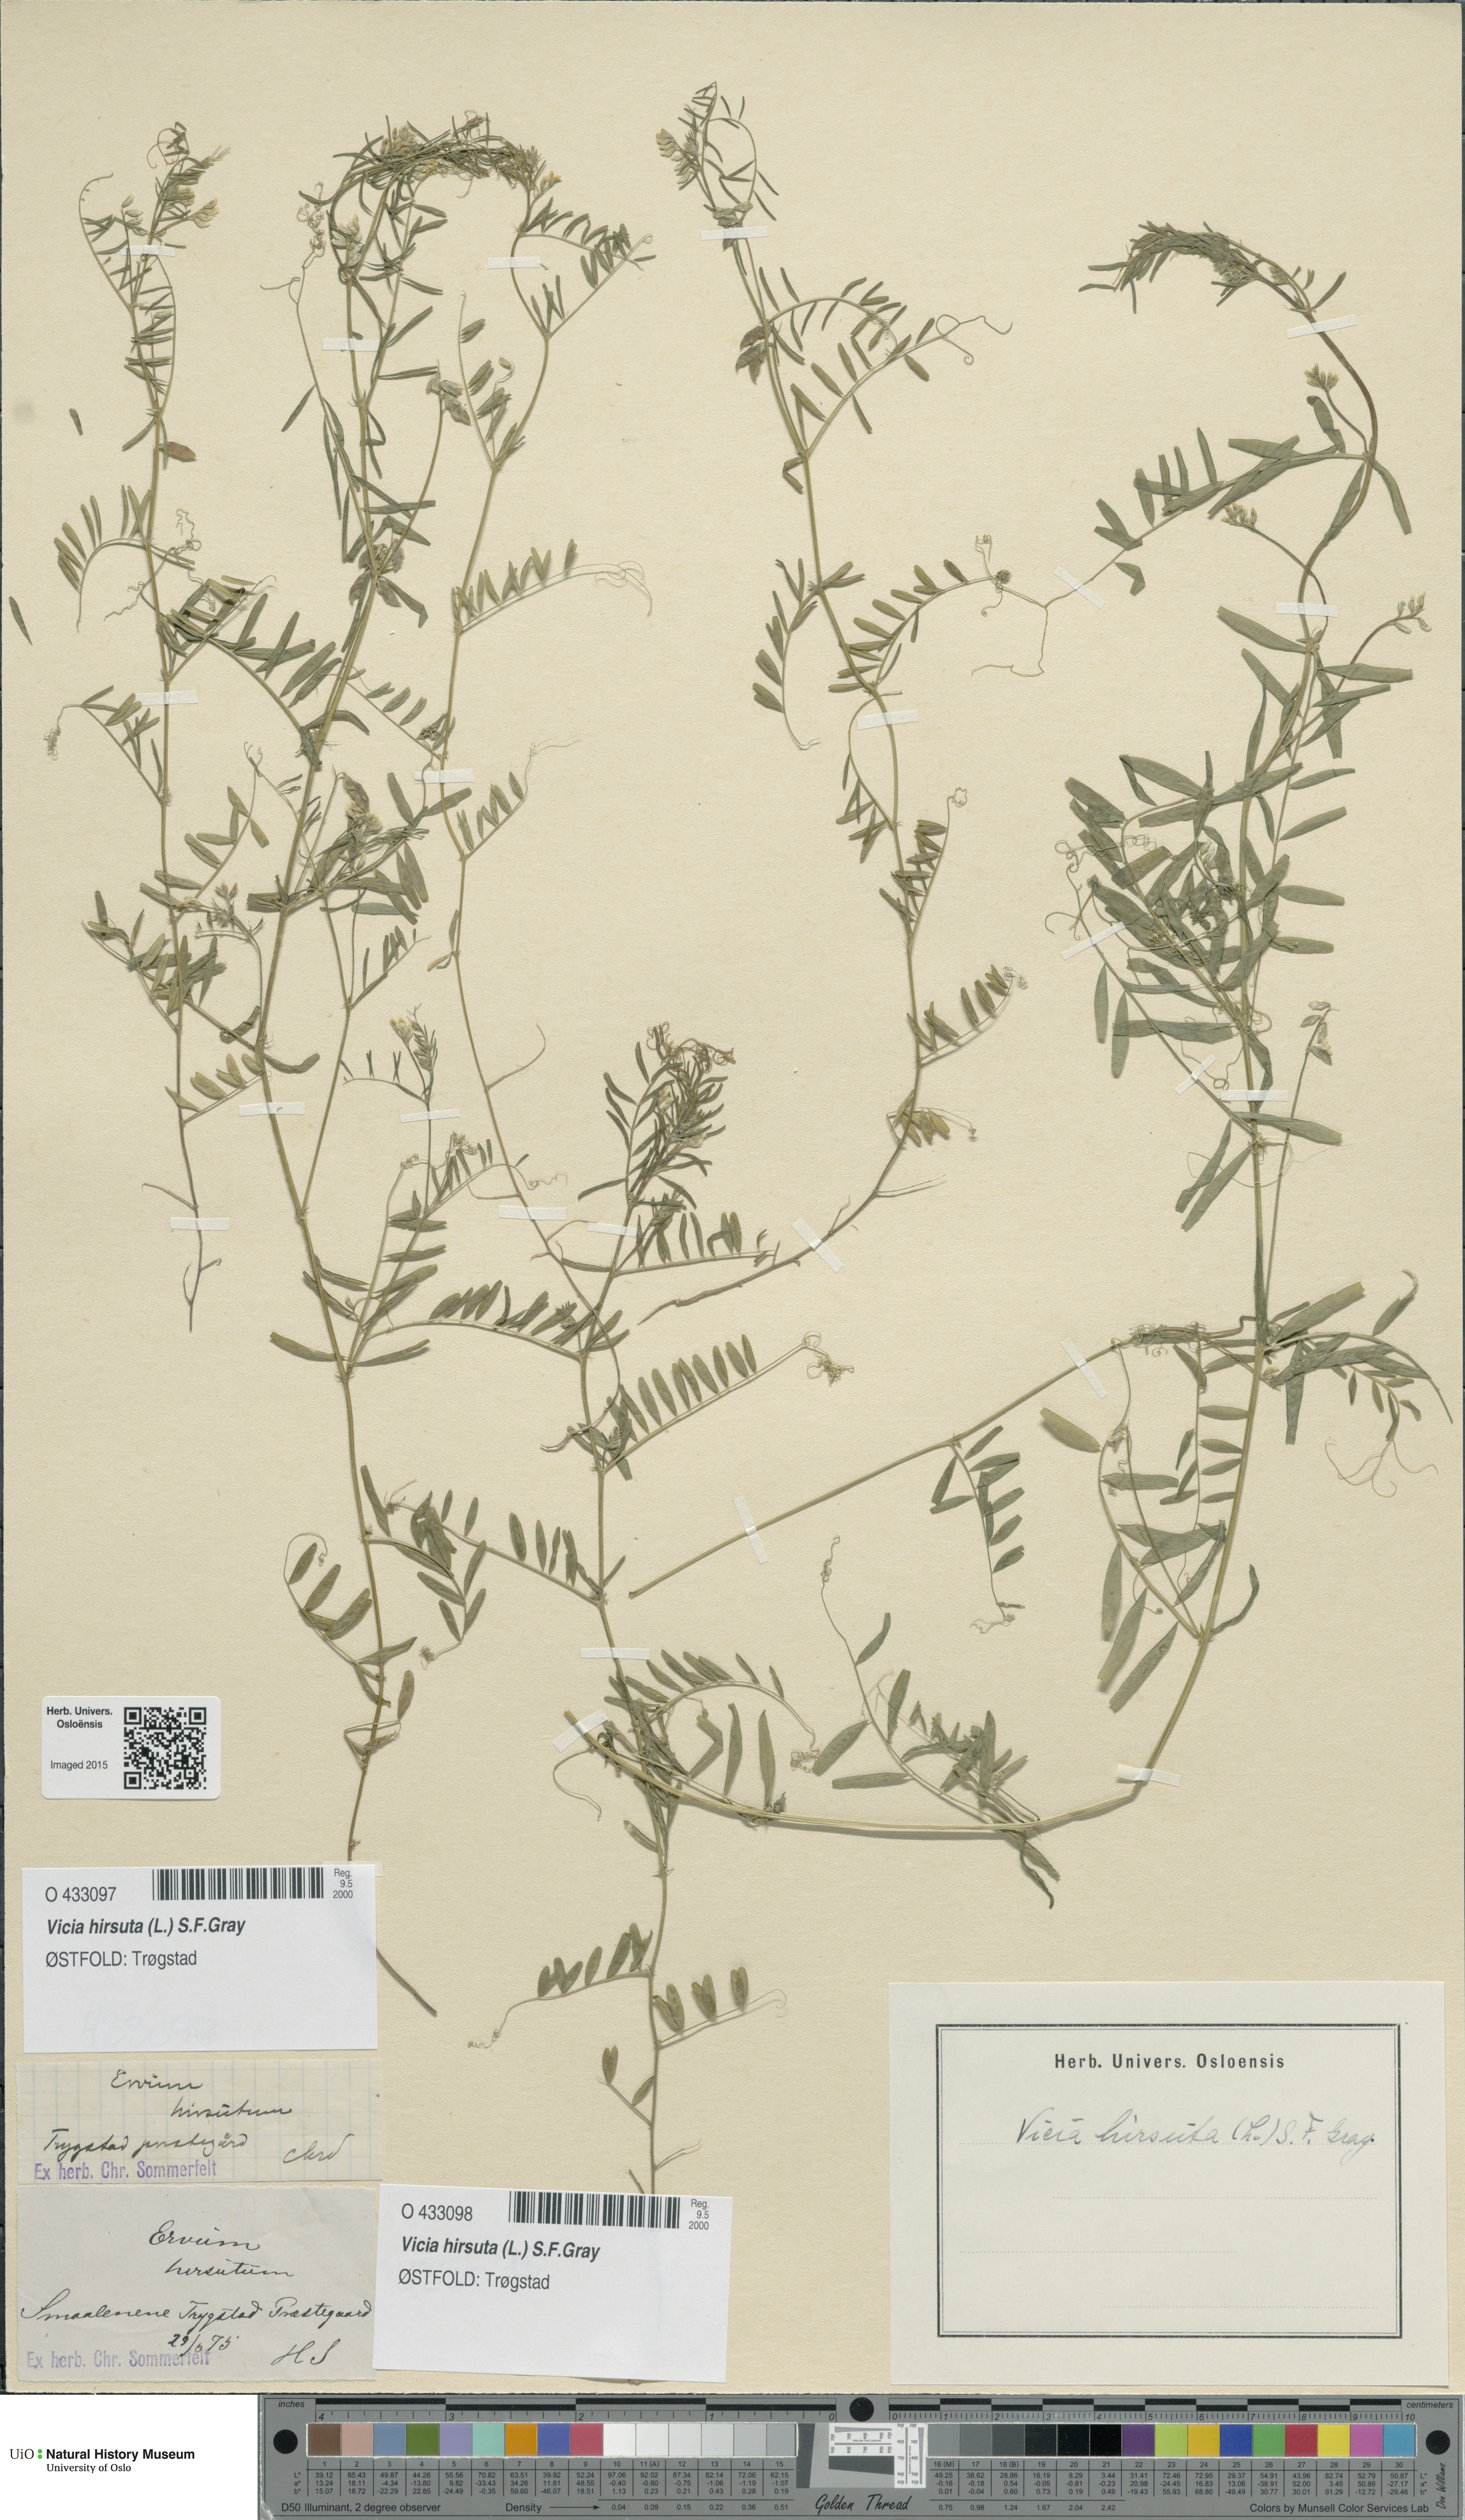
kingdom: Plantae
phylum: Tracheophyta
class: Magnoliopsida
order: Fabales
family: Fabaceae
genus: Vicia
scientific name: Vicia hirsuta
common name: Tiny vetch
